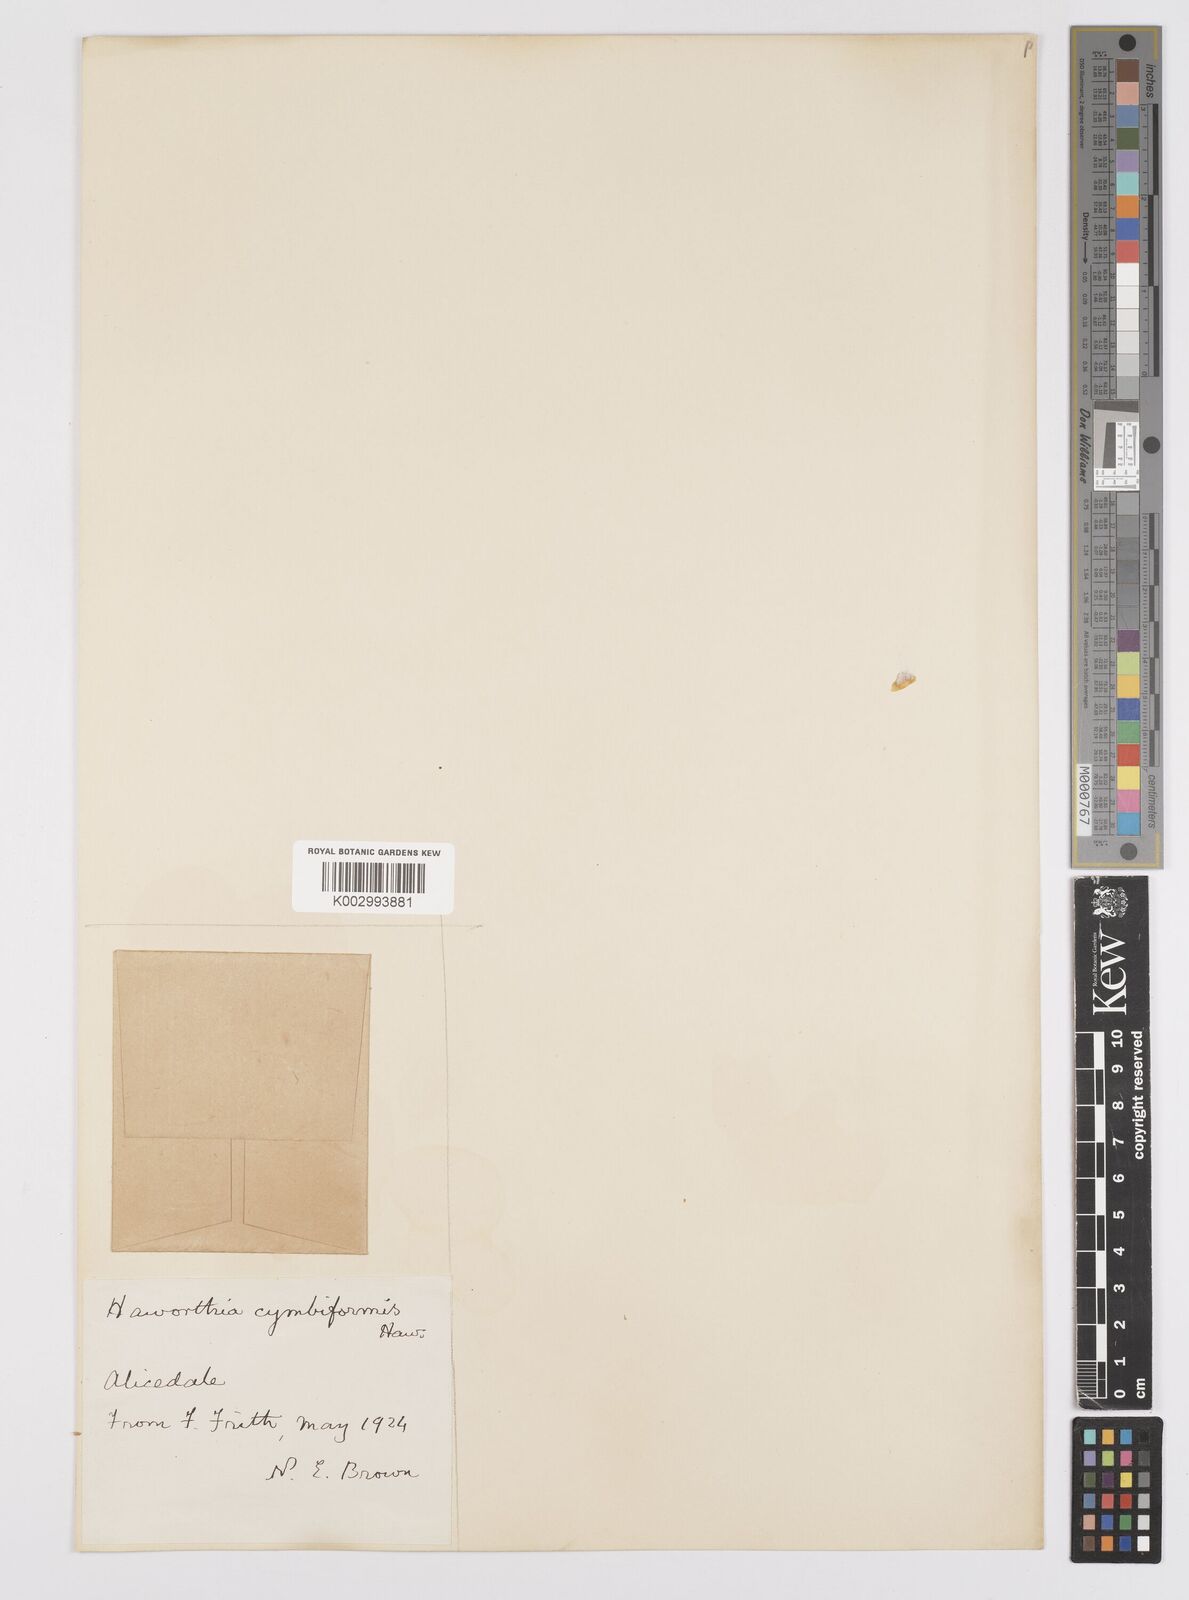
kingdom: Plantae
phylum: Tracheophyta
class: Liliopsida
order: Asparagales
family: Asphodelaceae
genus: Haworthia
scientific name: Haworthia cymbiformis
